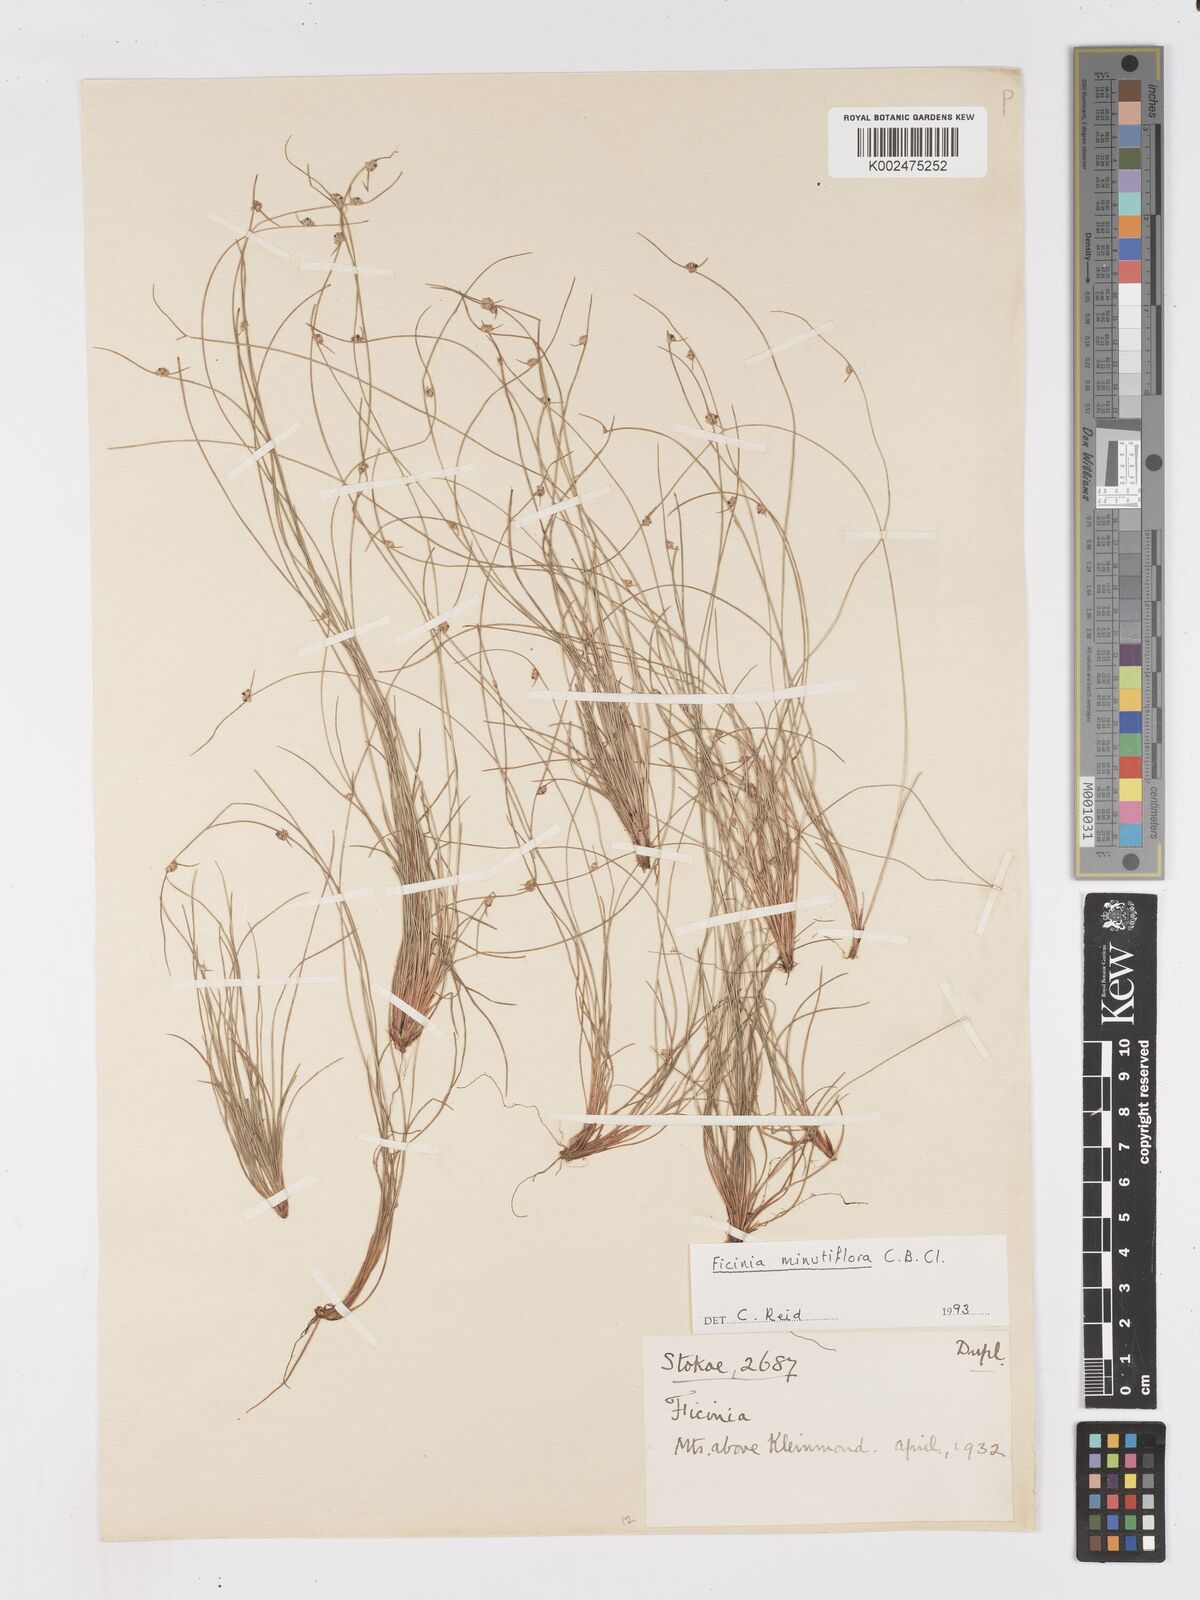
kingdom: Plantae
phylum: Tracheophyta
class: Liliopsida
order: Poales
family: Cyperaceae
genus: Ficinia
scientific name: Ficinia minutiflora
